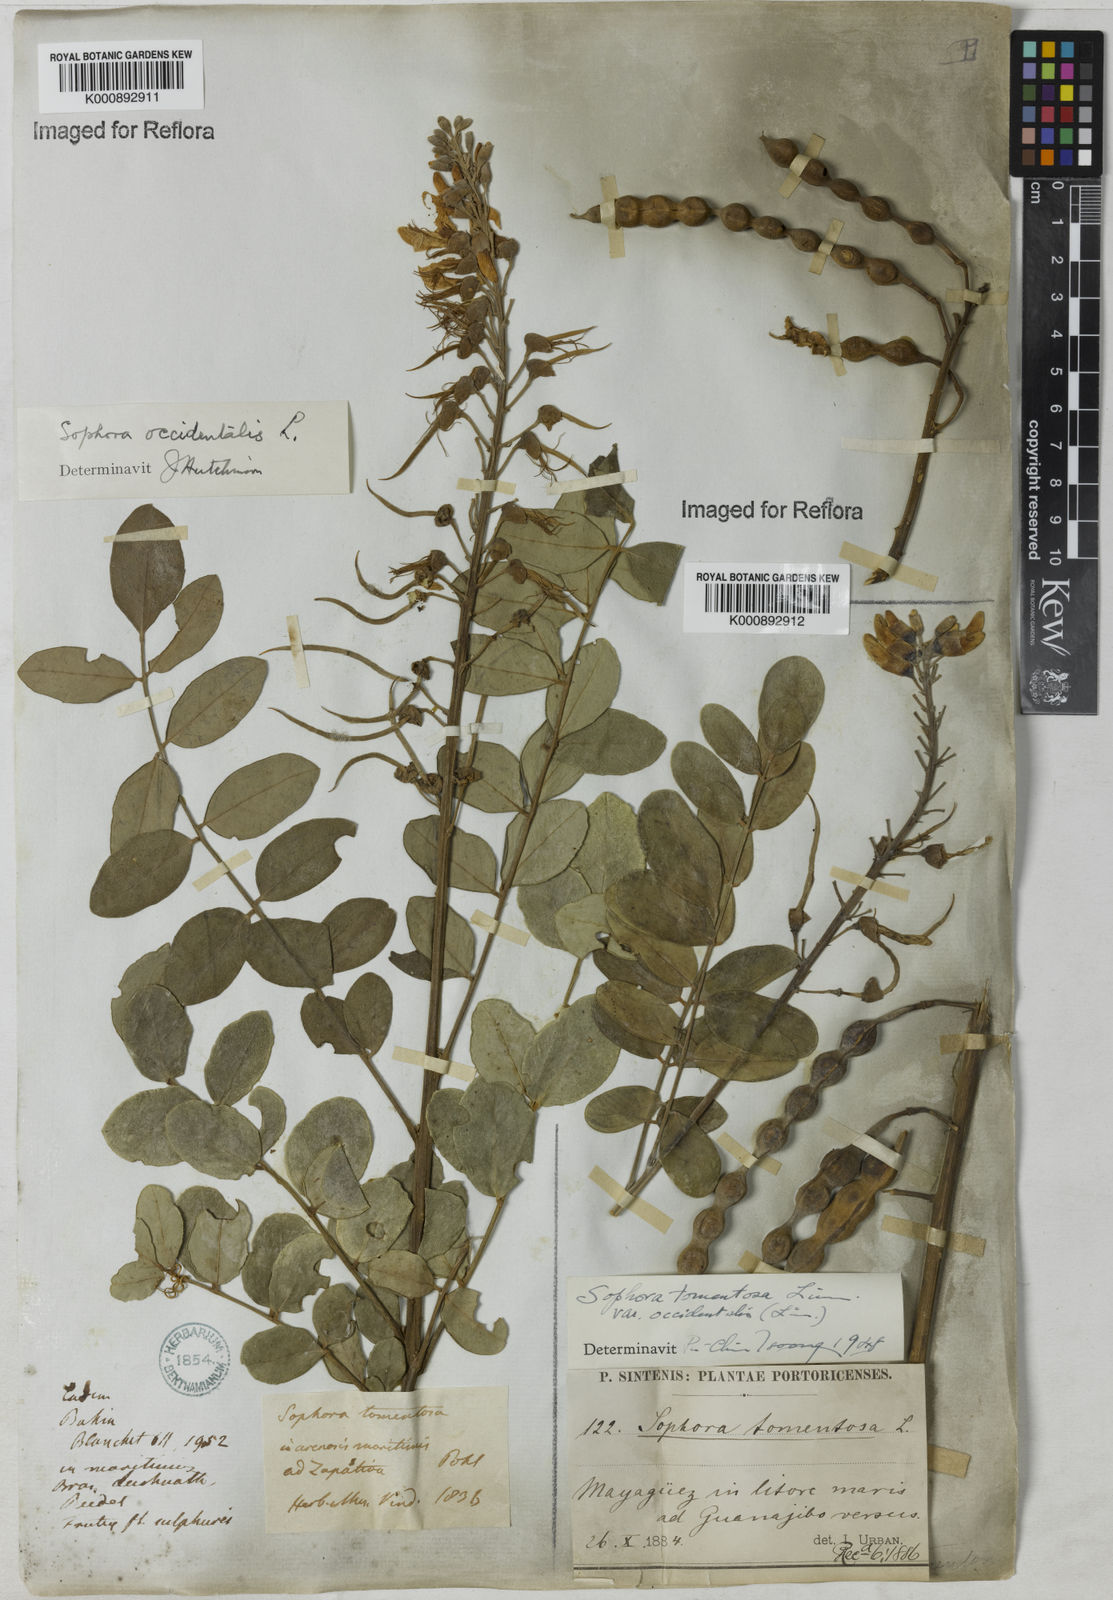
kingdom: Plantae
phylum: Tracheophyta
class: Magnoliopsida
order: Fabales
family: Fabaceae
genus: Sophora
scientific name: Sophora
